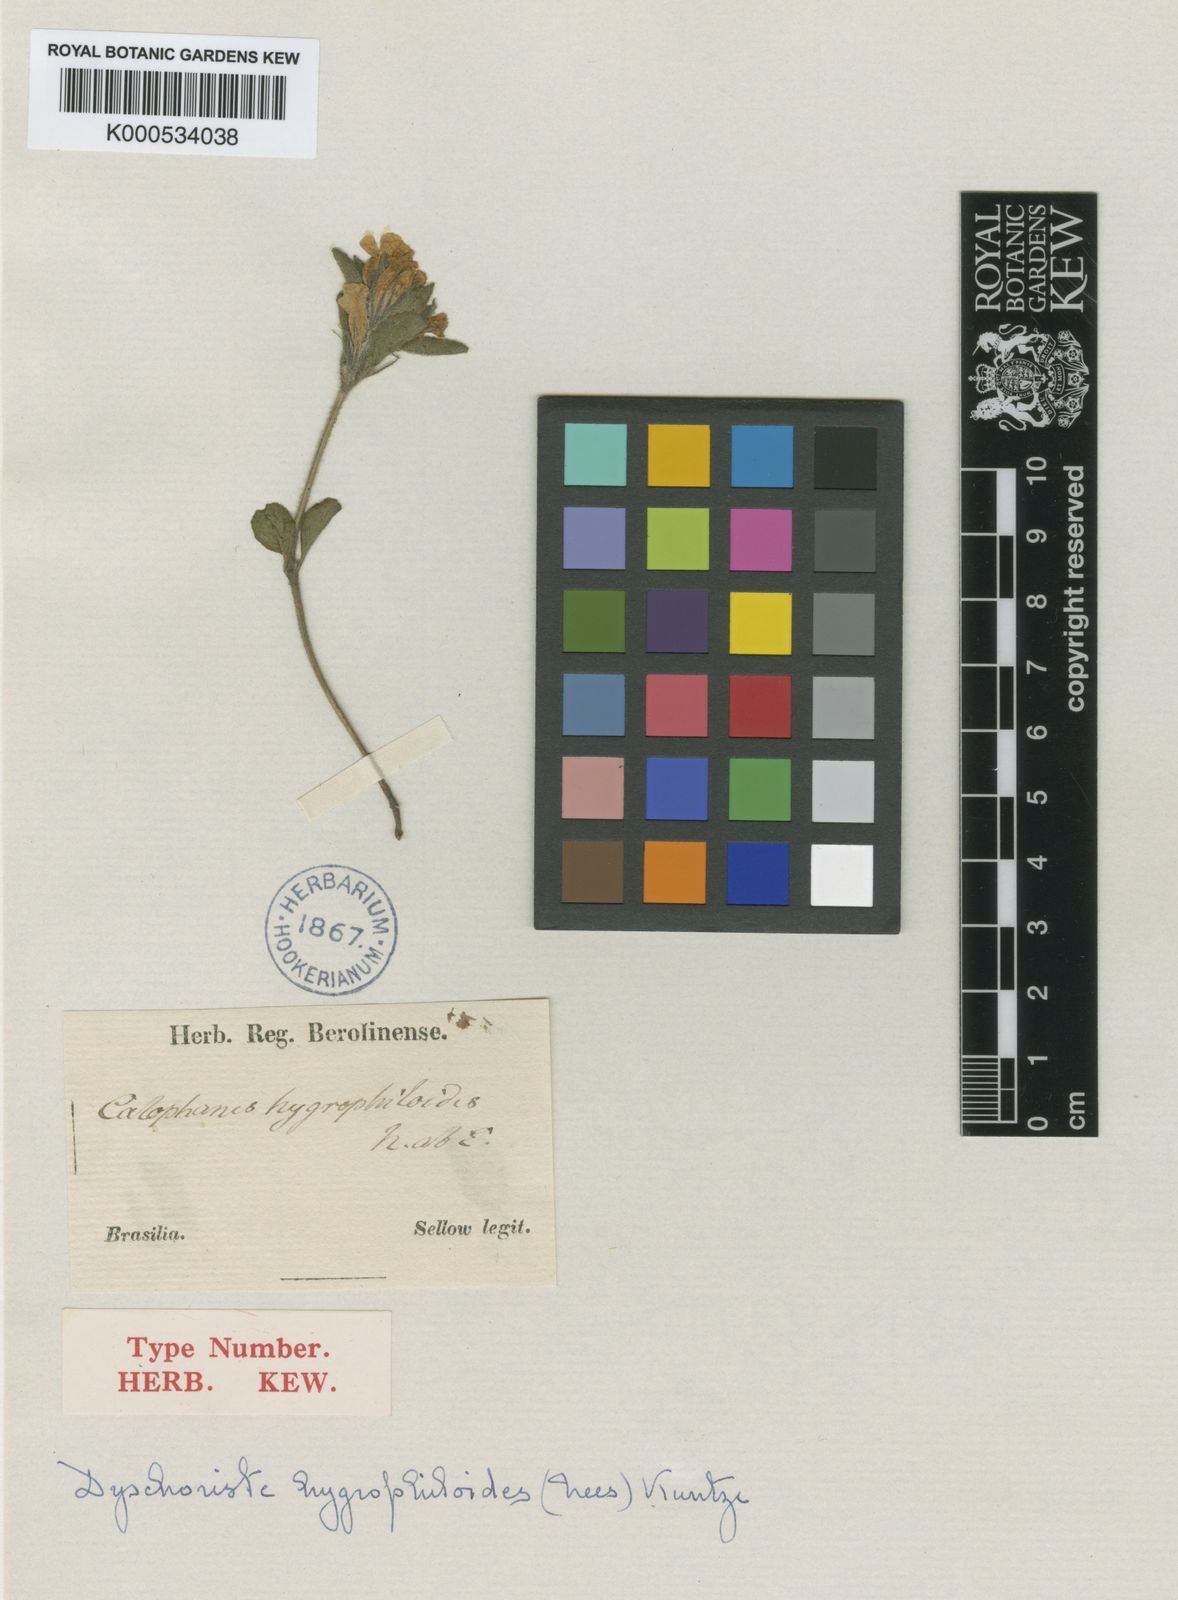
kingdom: Plantae
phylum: Tracheophyta
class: Magnoliopsida
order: Lamiales
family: Acanthaceae
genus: Dyschoriste
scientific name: Dyschoriste
